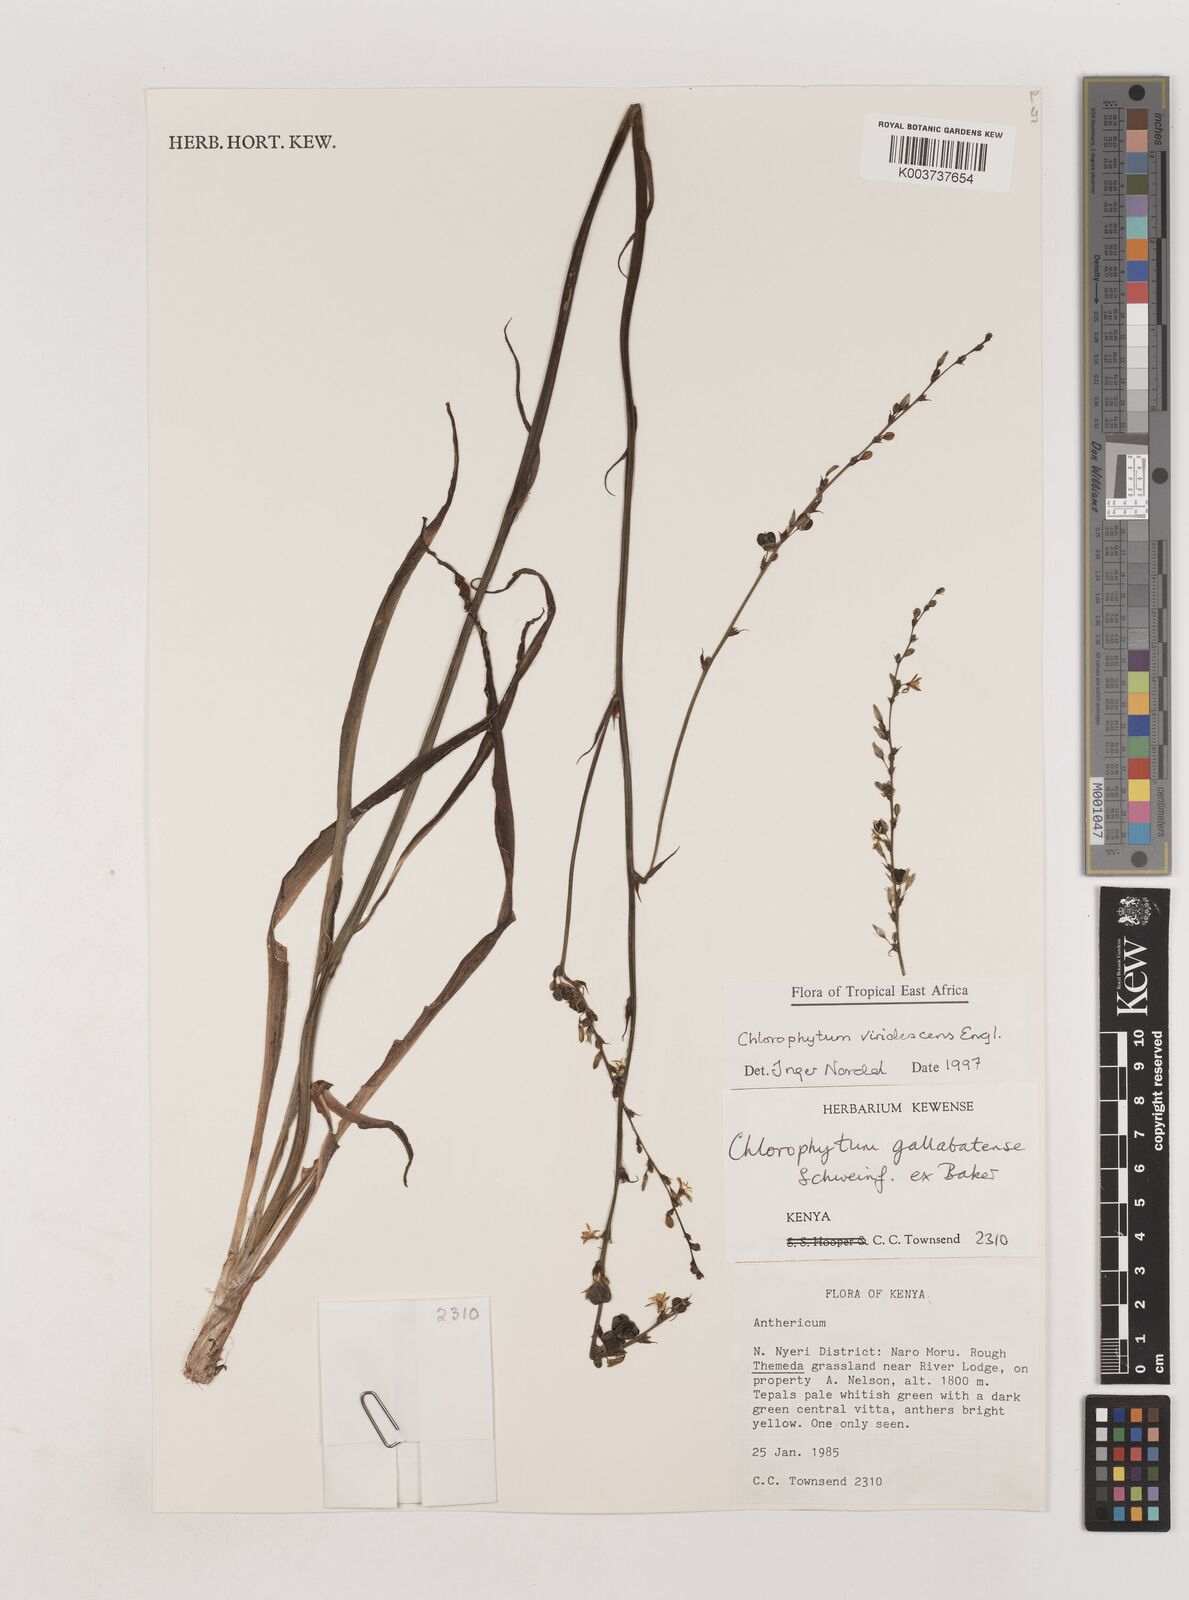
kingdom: Plantae
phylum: Tracheophyta
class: Liliopsida
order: Asparagales
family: Asparagaceae
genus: Chlorophytum
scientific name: Chlorophytum viridescens
